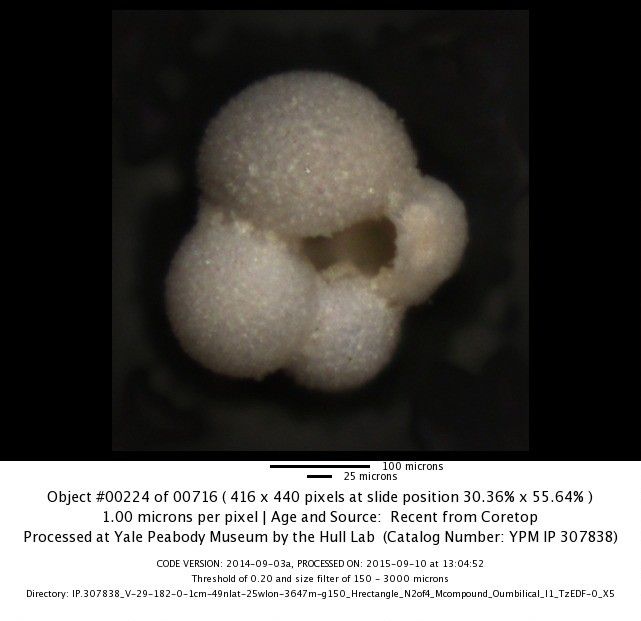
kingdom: Chromista
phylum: Foraminifera
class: Globothalamea
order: Rotaliida
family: Globigerinidae
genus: Globigerina
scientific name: Globigerina bulloides
